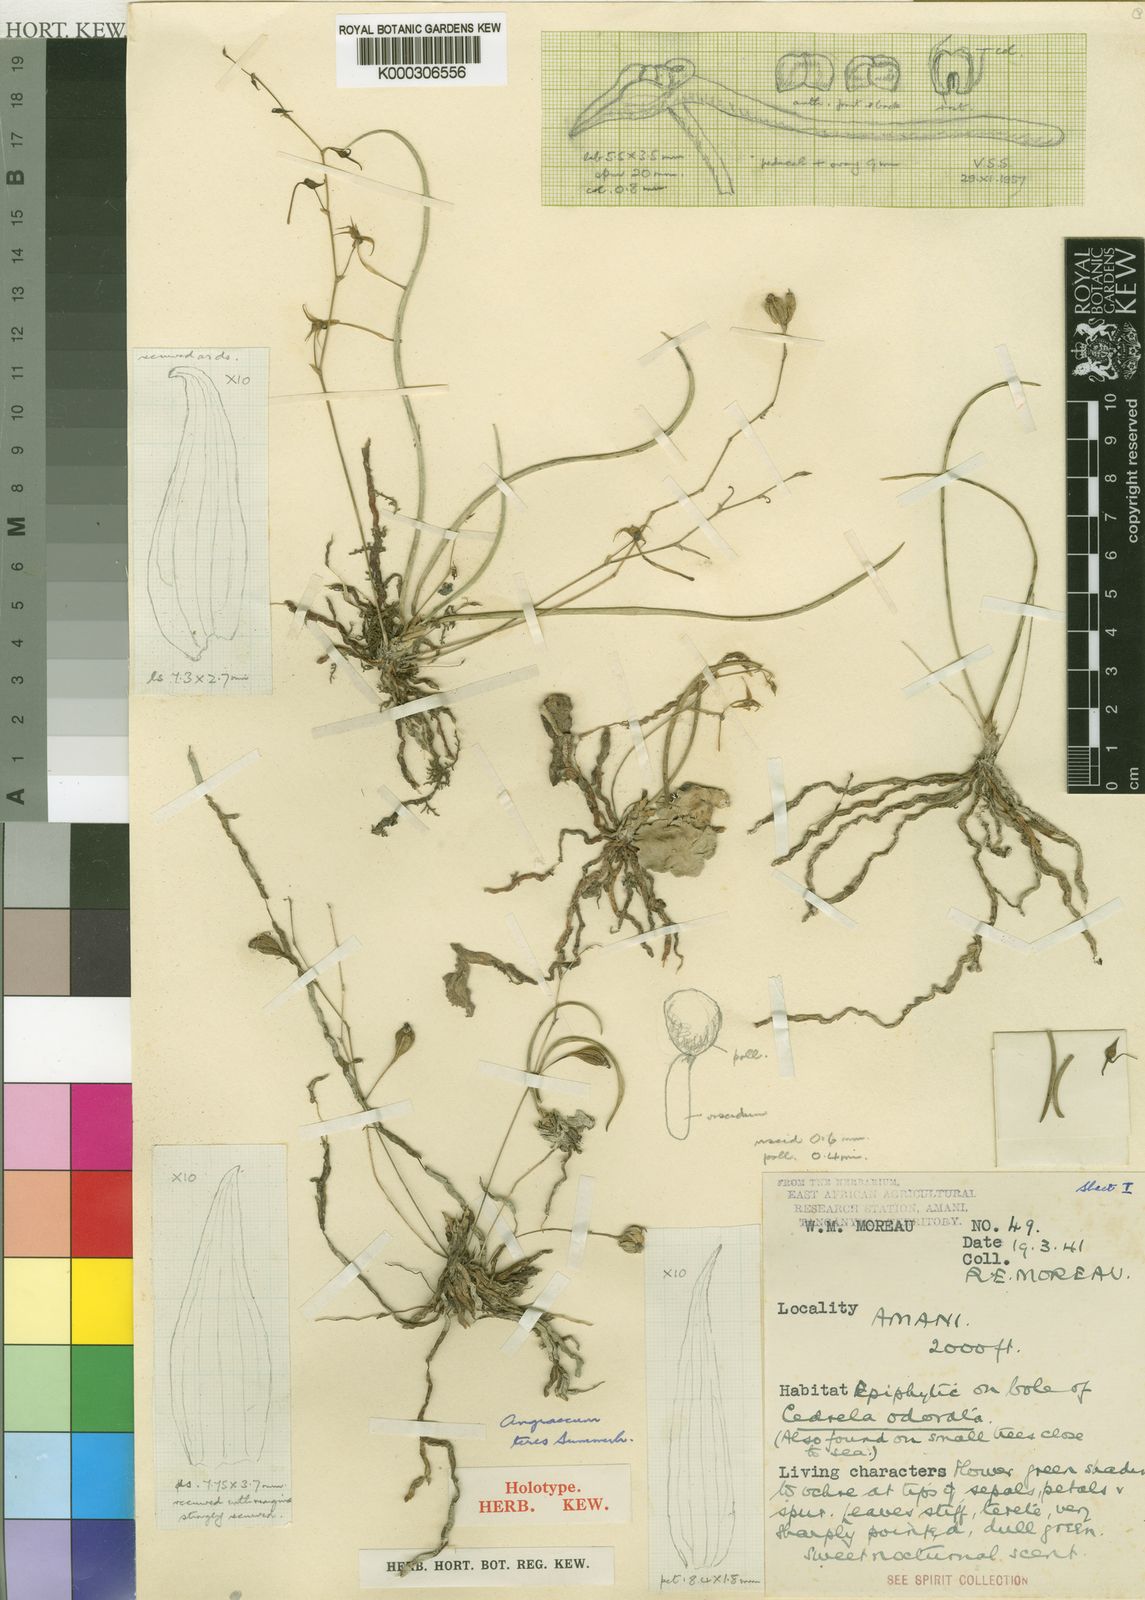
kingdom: Plantae
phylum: Tracheophyta
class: Liliopsida
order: Asparagales
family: Orchidaceae
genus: Angraecum
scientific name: Angraecum teres
